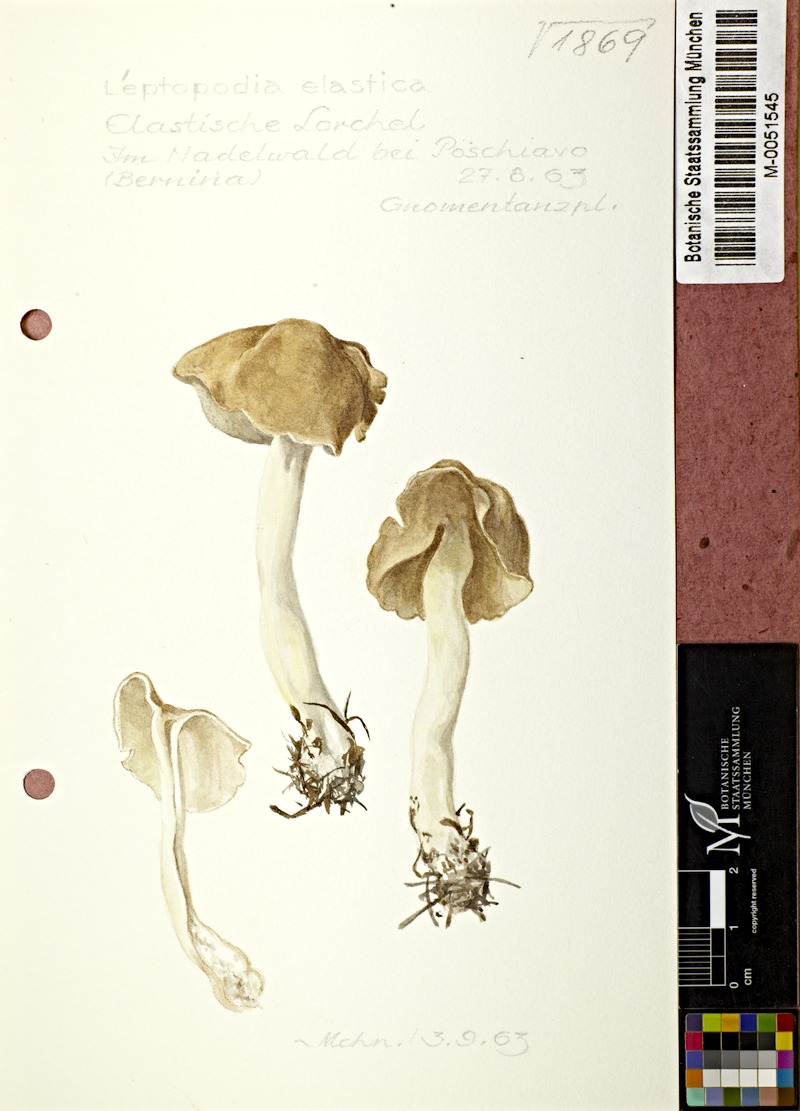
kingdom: Fungi
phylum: Ascomycota
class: Pezizomycetes
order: Pezizales
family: Helvellaceae
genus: Helvella
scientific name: Helvella elastica
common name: Elastic saddle
